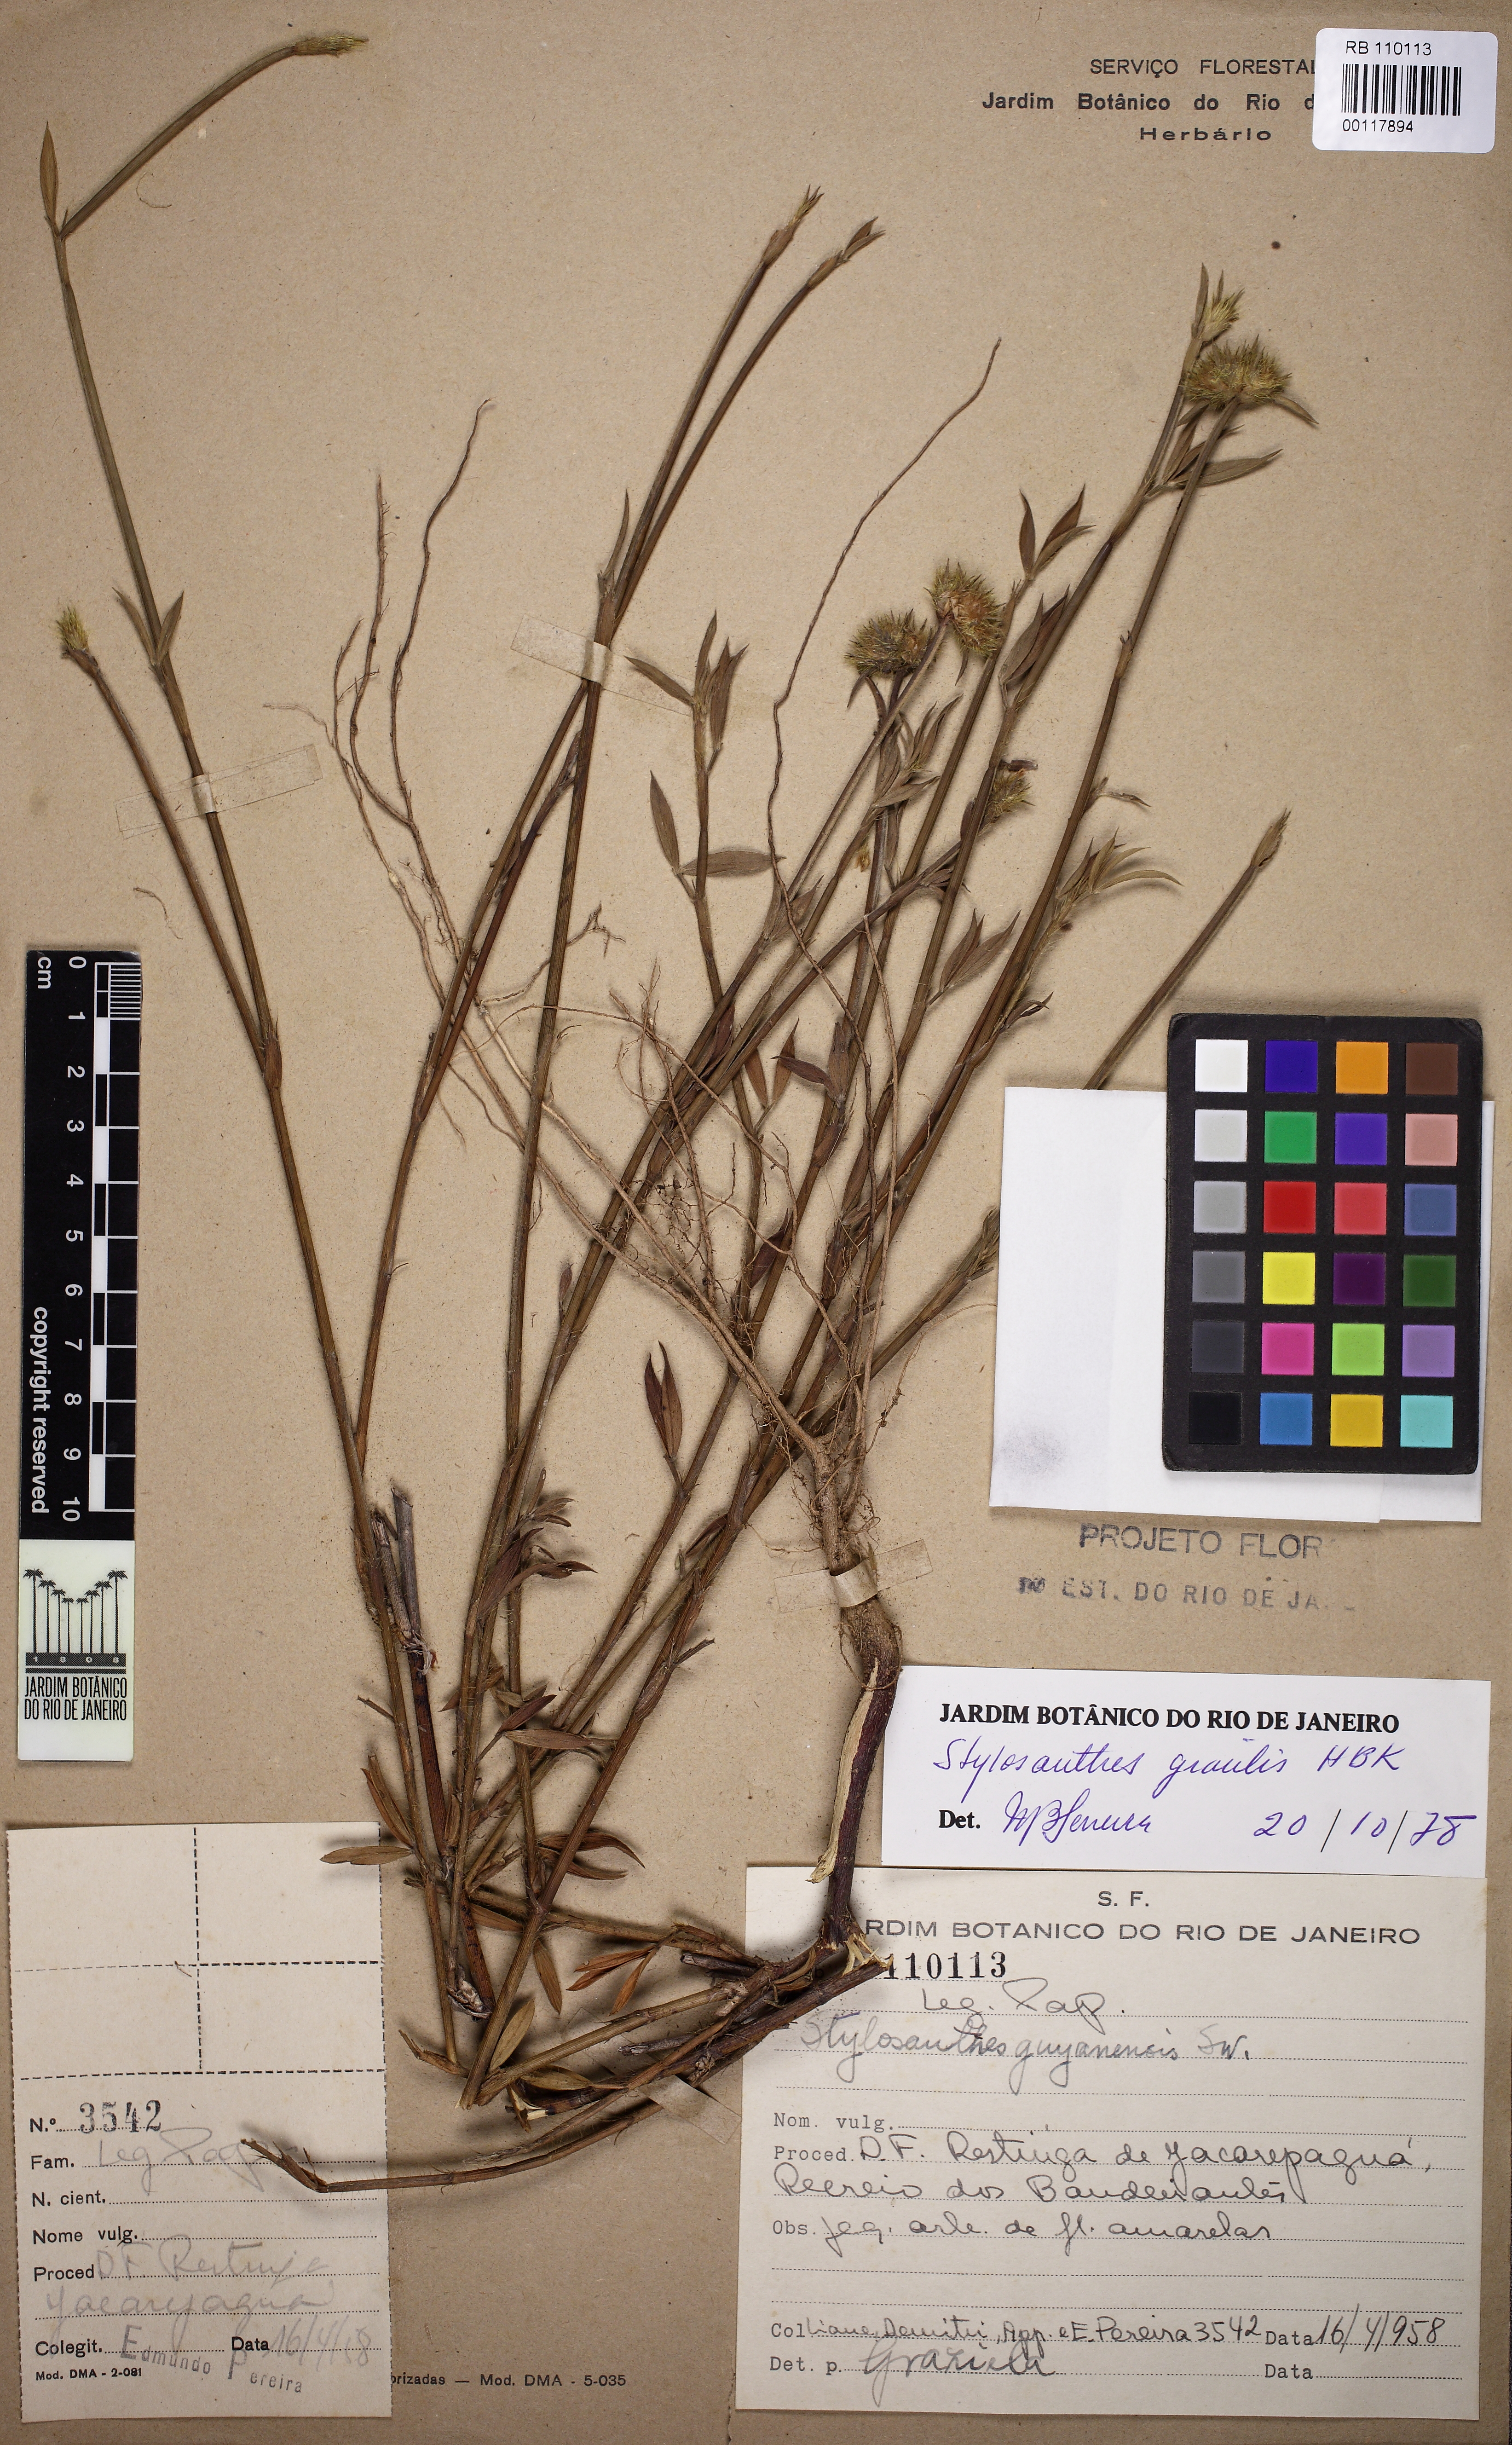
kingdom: Plantae
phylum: Tracheophyta
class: Magnoliopsida
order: Fabales
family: Fabaceae
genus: Stylosanthes
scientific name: Stylosanthes guianensis
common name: Pencil flower
